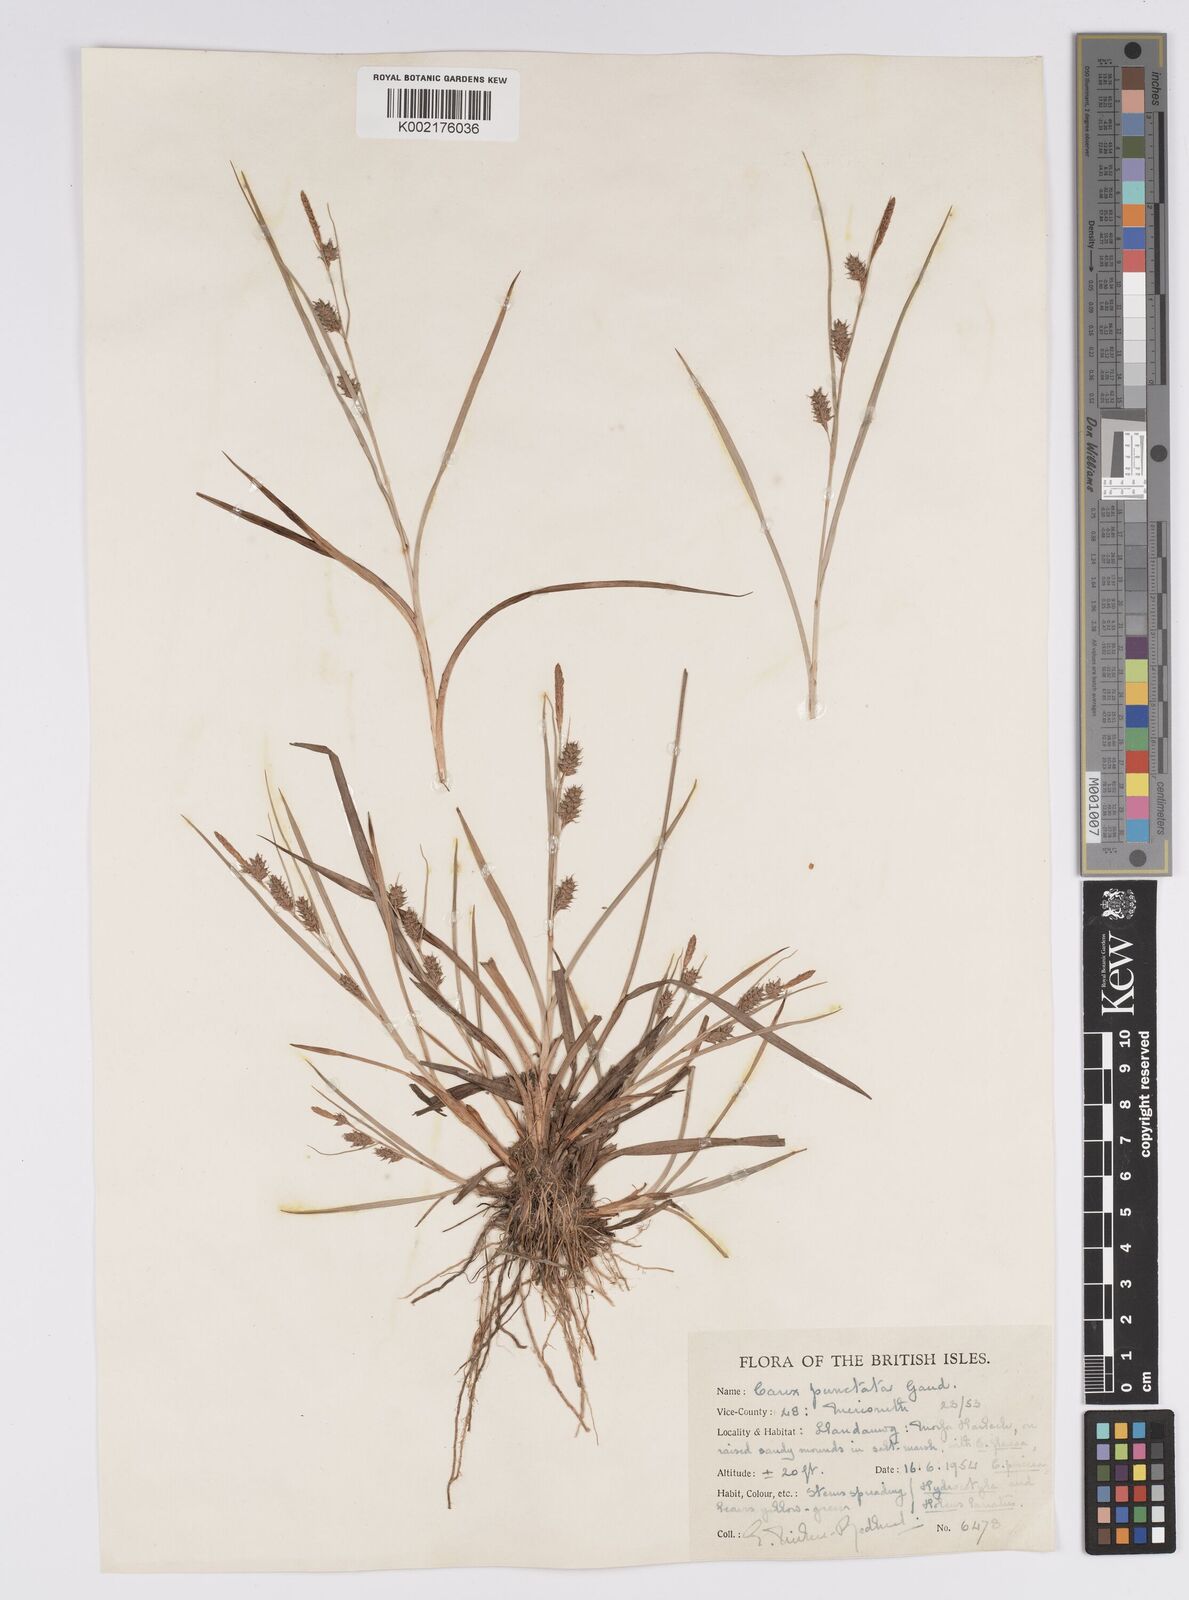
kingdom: Plantae
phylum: Tracheophyta
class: Liliopsida
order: Poales
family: Cyperaceae
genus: Carex
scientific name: Carex punctata
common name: Dotted sedge
